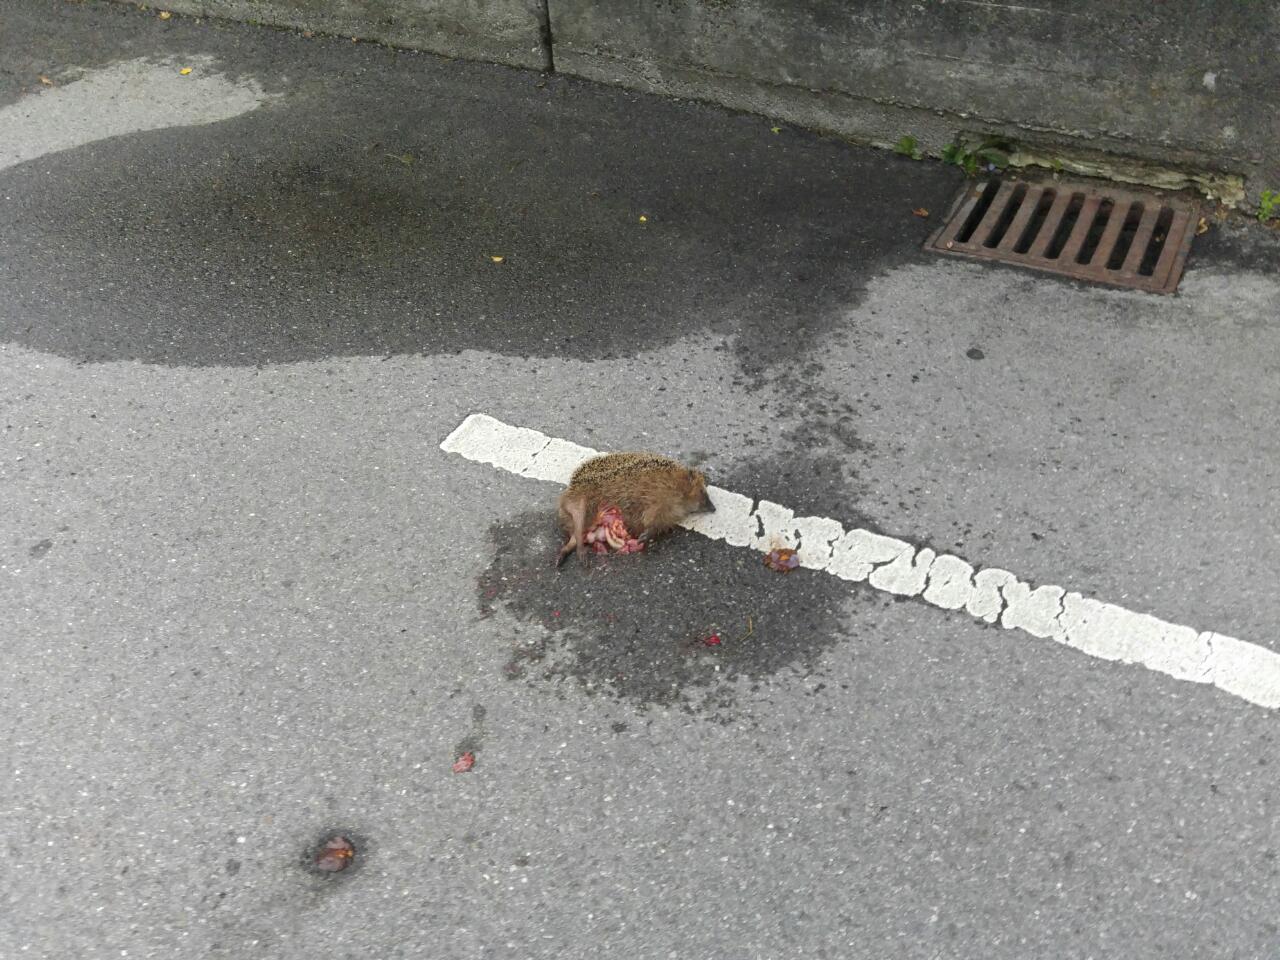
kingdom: Animalia
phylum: Chordata
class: Mammalia
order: Erinaceomorpha
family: Erinaceidae
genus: Erinaceus
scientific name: Erinaceus
